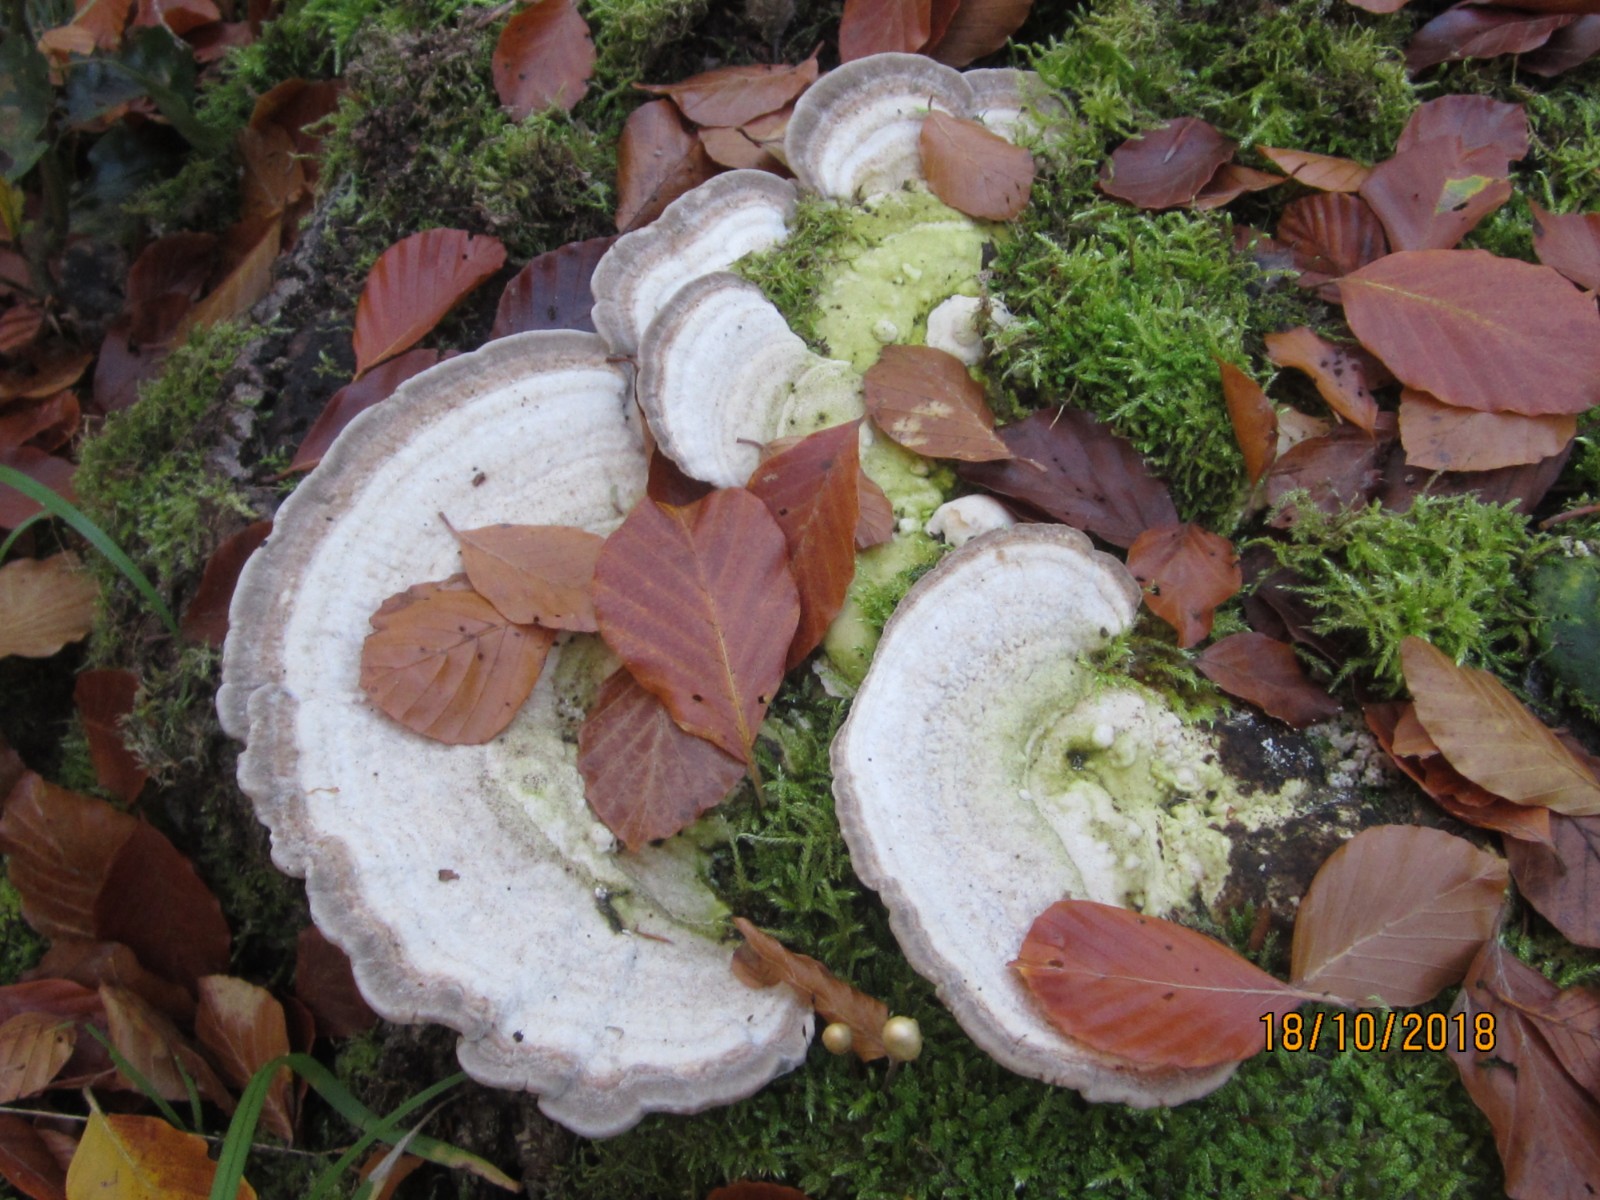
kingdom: Fungi
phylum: Basidiomycota
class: Agaricomycetes
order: Polyporales
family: Polyporaceae
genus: Trametes
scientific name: Trametes gibbosa
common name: puklet læderporesvamp
